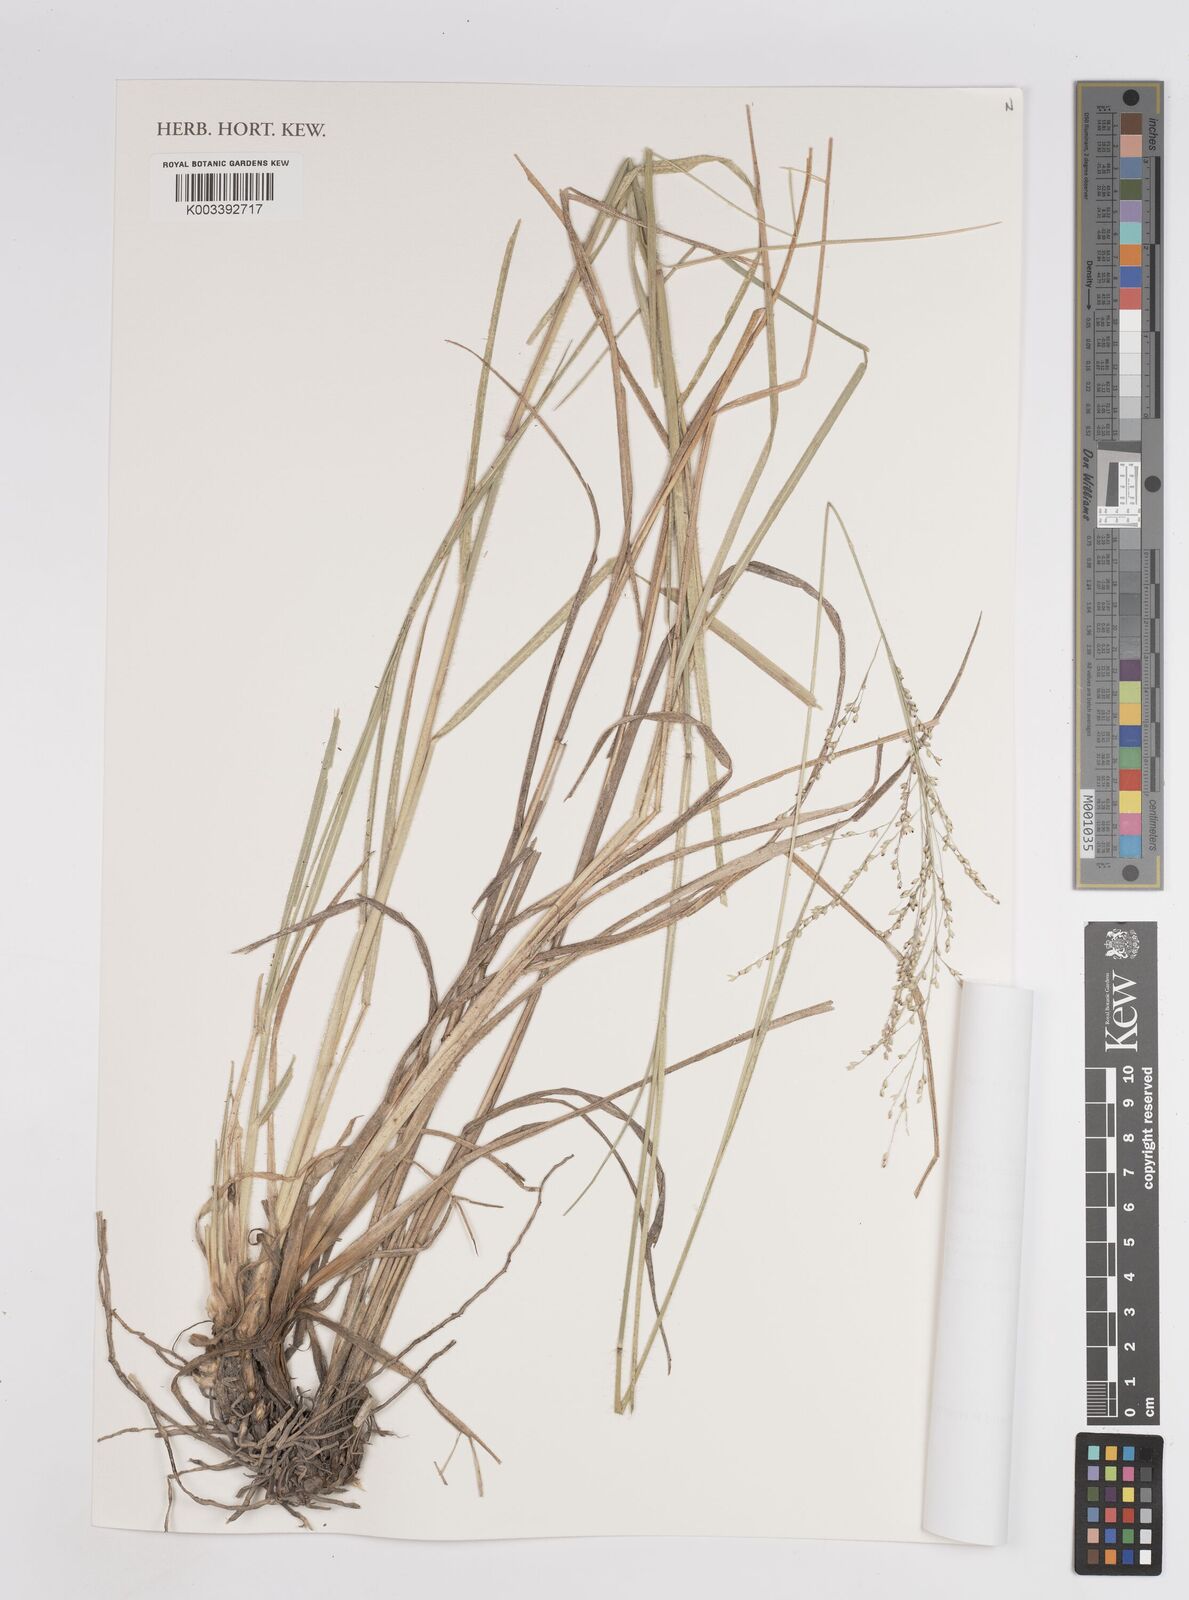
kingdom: Plantae
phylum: Tracheophyta
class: Liliopsida
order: Poales
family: Poaceae
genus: Panicum
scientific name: Panicum coloratum
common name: Kleingrass
